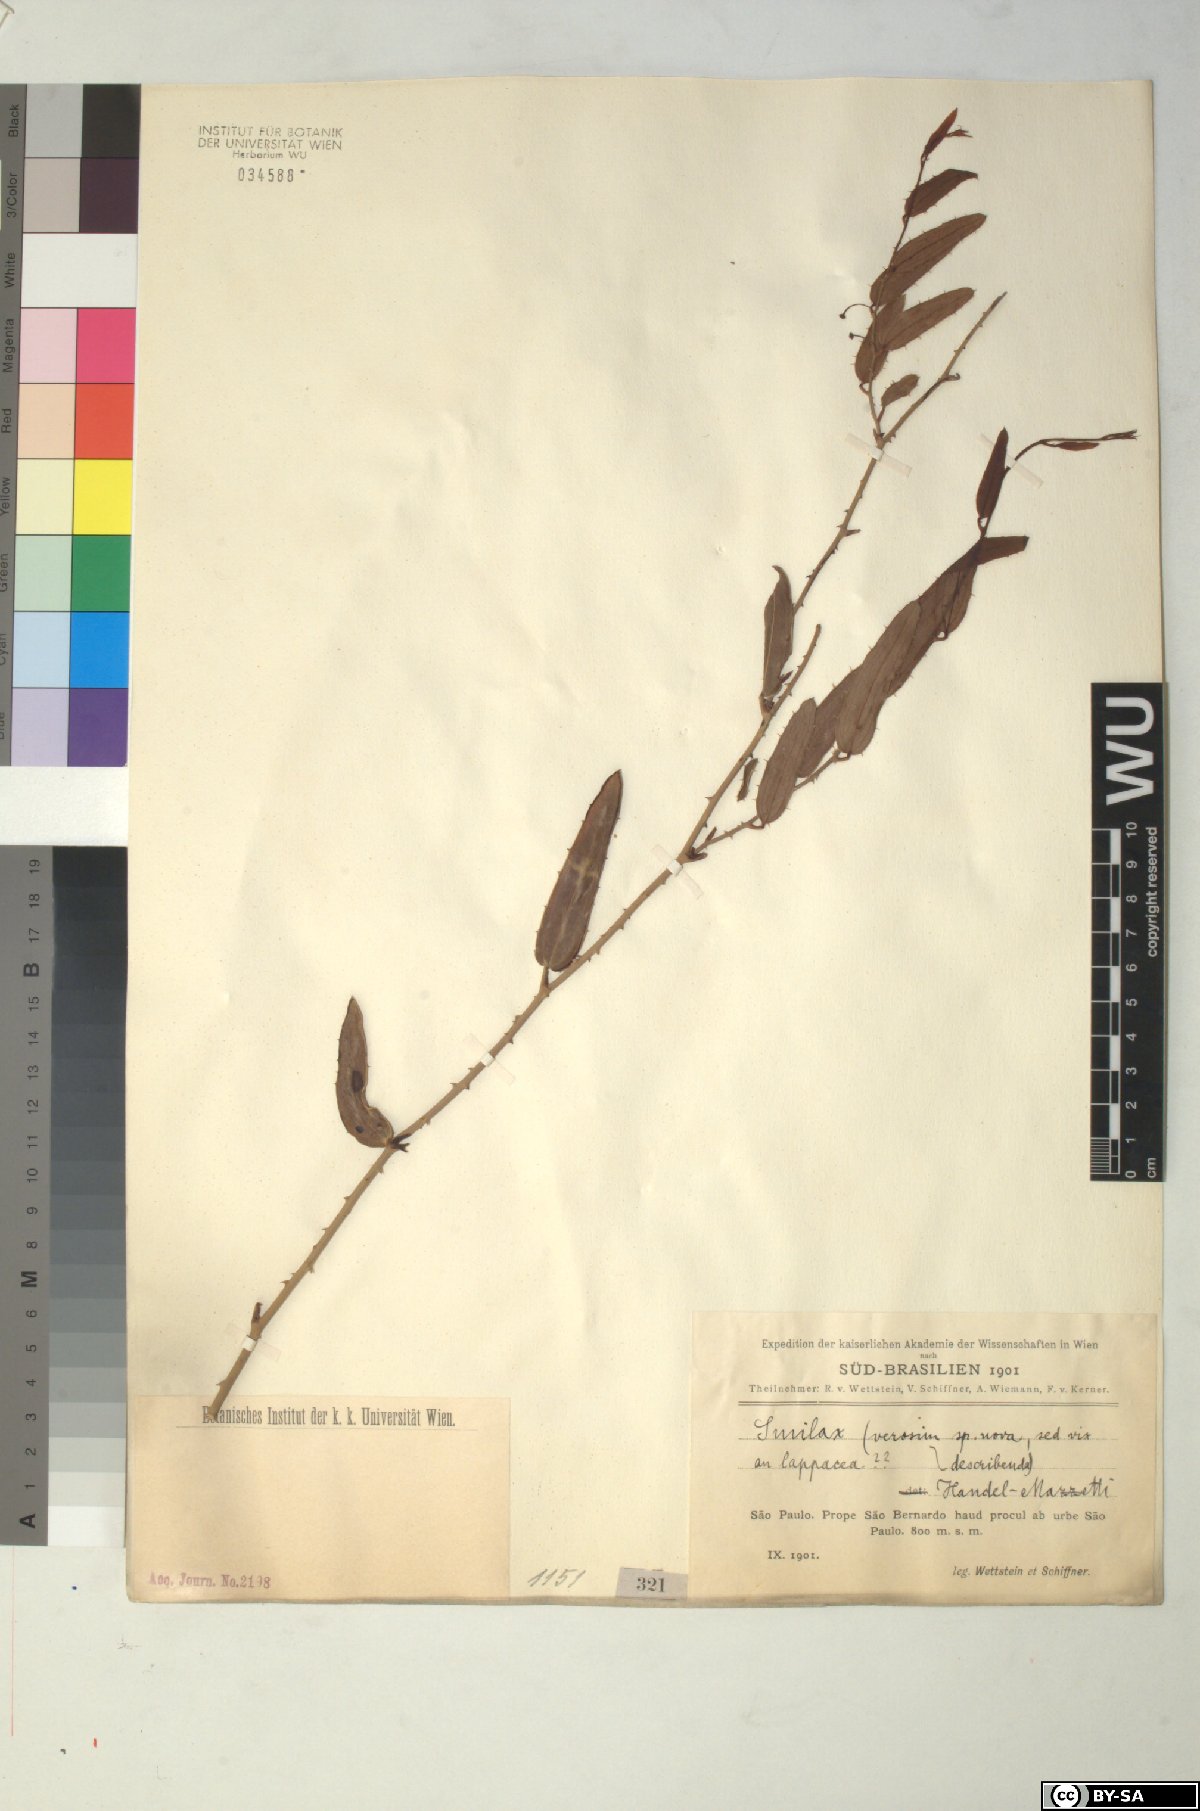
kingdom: Plantae
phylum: Tracheophyta
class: Liliopsida
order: Liliales
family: Smilacaceae
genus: Smilax
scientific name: Smilax
